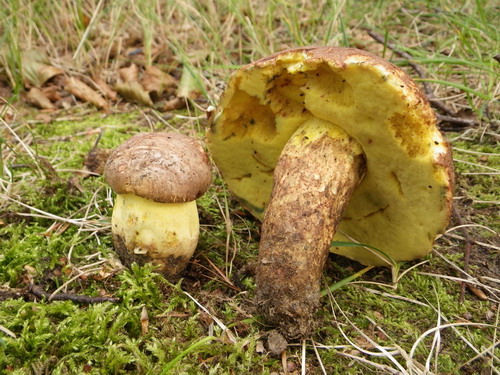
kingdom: Fungi
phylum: Basidiomycota
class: Agaricomycetes
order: Boletales
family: Boletaceae
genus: Butyriboletus
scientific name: Butyriboletus appendiculatus
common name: tenstokket rørhat
